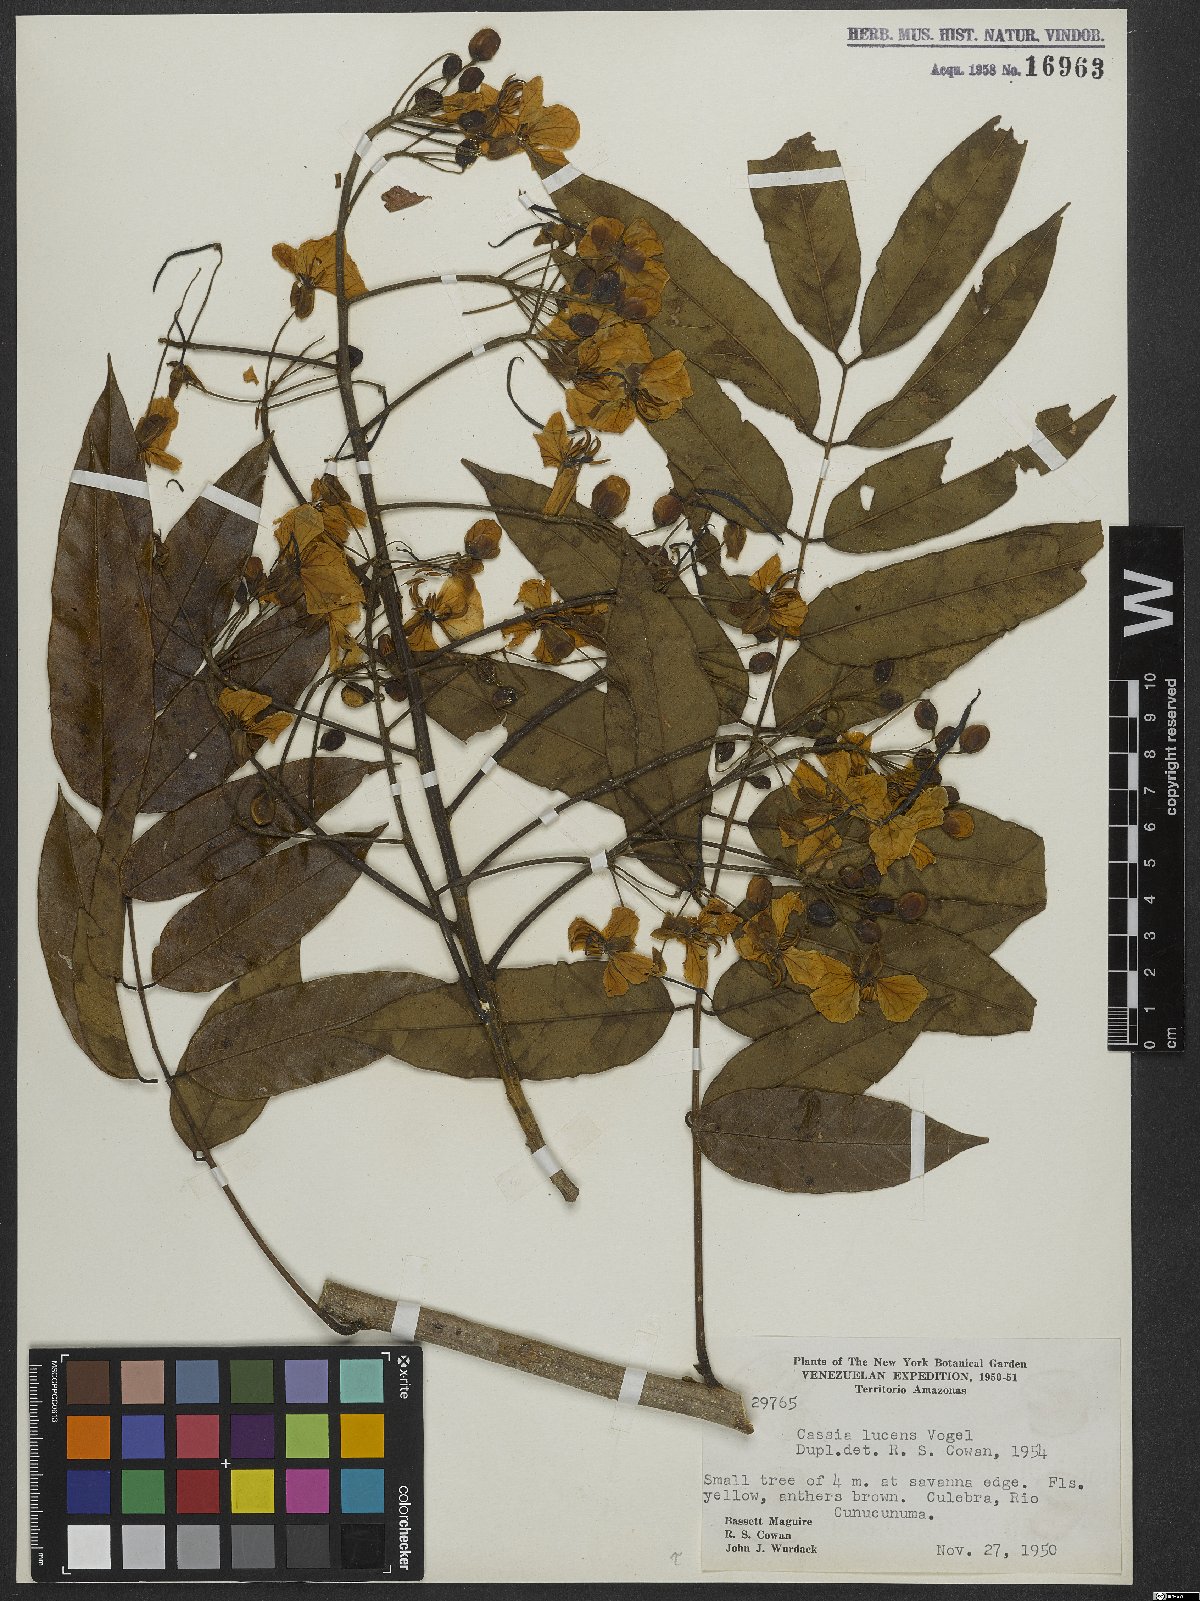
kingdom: Plantae
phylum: Tracheophyta
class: Magnoliopsida
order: Fabales
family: Fabaceae
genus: Senna
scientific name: Senna silvestris
